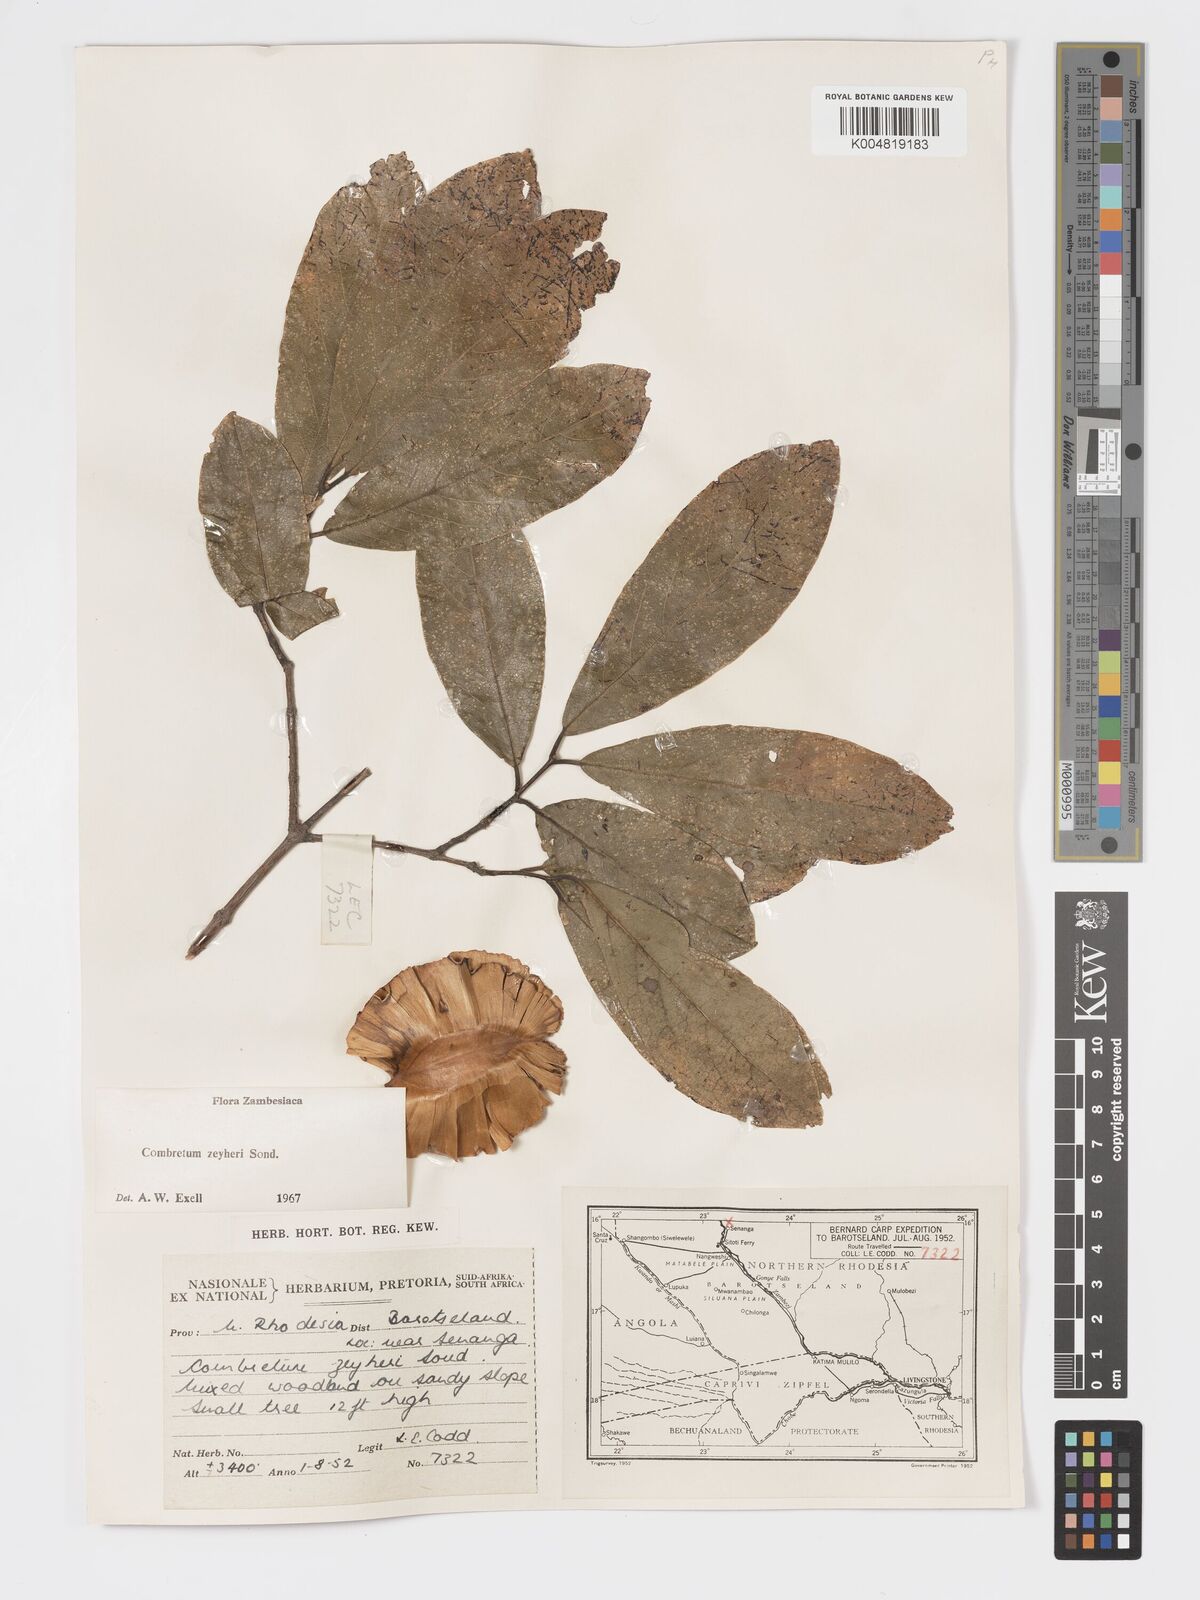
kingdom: Plantae
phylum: Tracheophyta
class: Magnoliopsida
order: Myrtales
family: Combretaceae
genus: Combretum
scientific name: Combretum zeyheri
